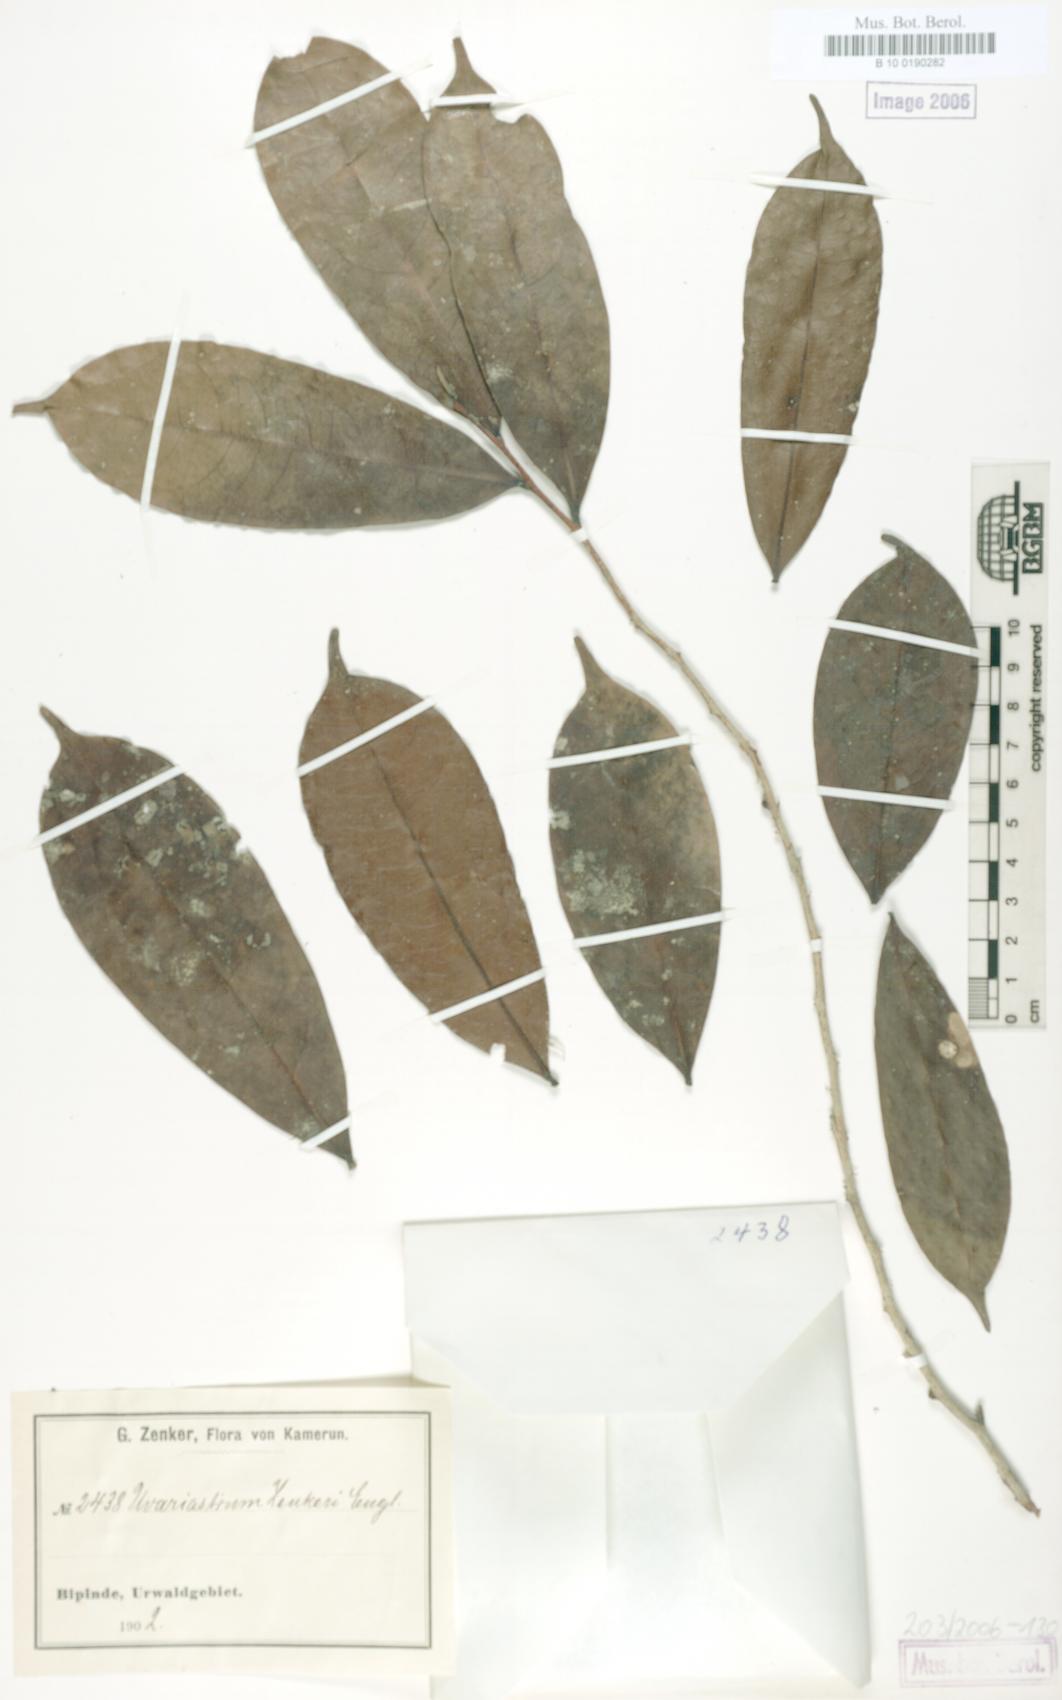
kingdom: Plantae
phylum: Tracheophyta
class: Magnoliopsida
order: Magnoliales
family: Annonaceae
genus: Uvariastrum
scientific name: Uvariastrum zenkeri
